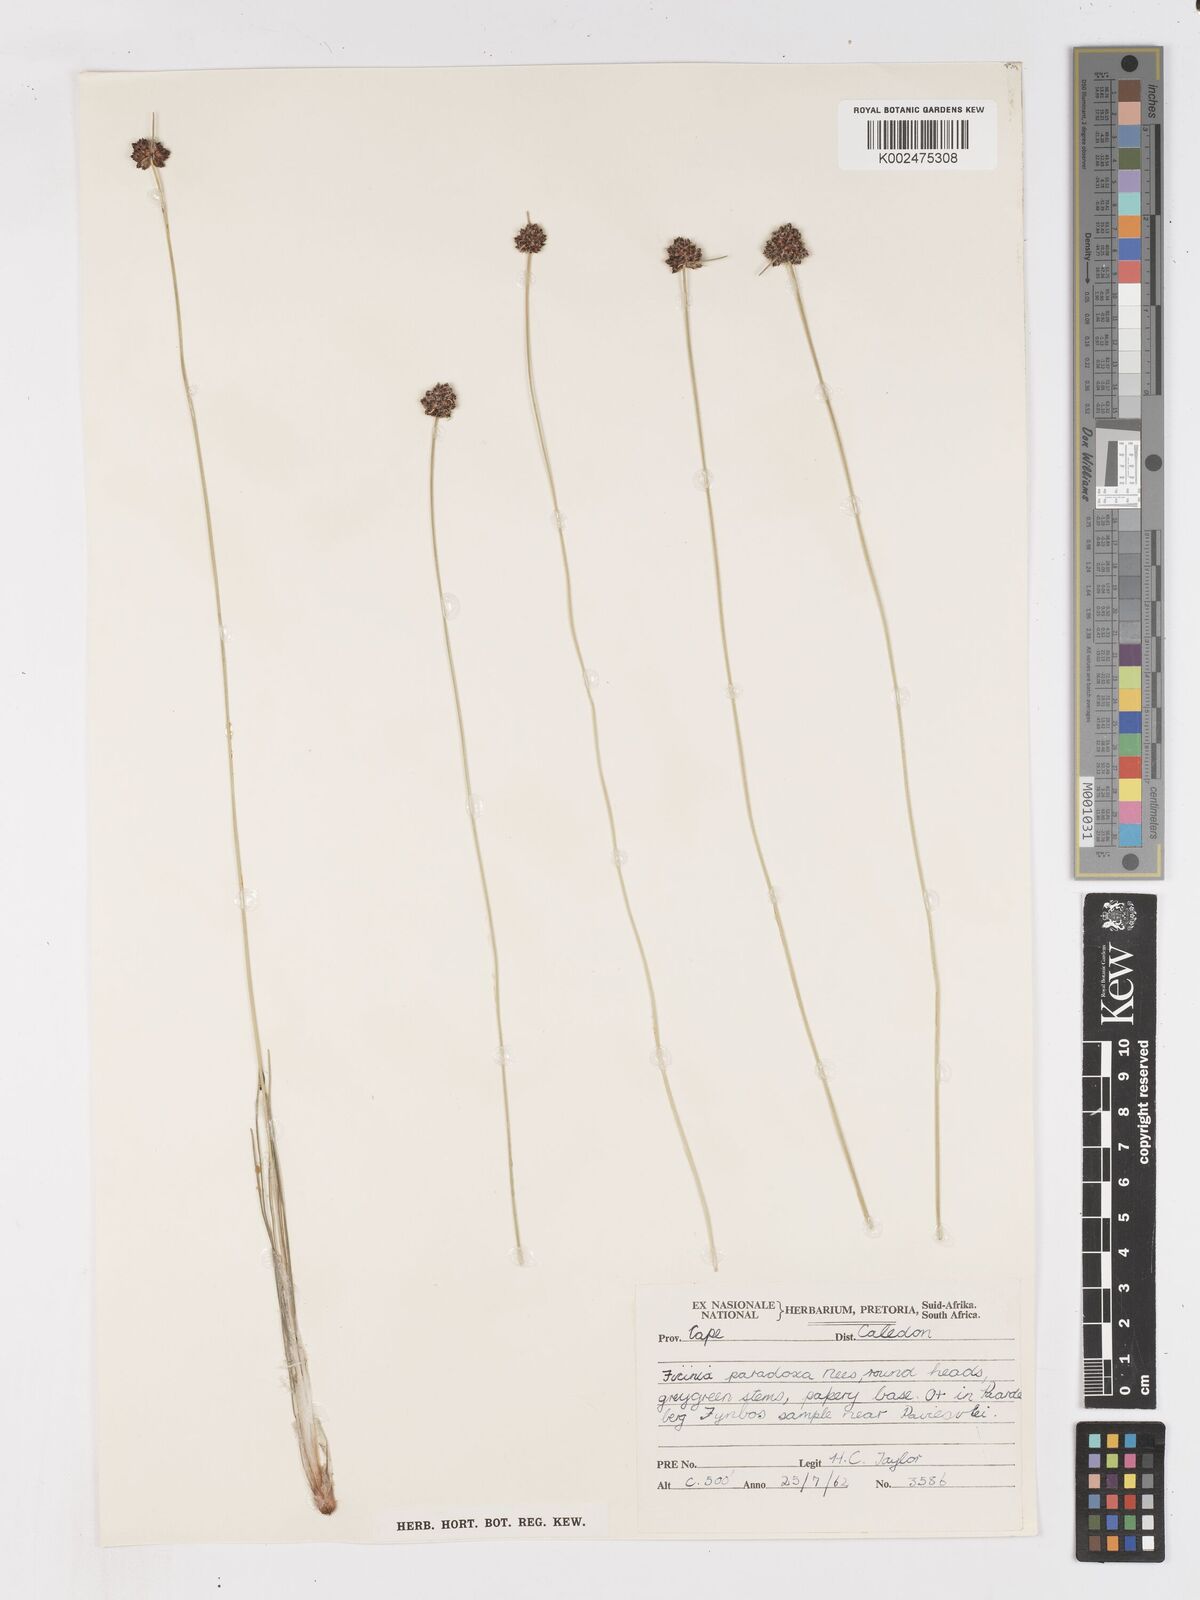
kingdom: Plantae
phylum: Tracheophyta
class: Liliopsida
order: Poales
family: Cyperaceae
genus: Ficinia
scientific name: Ficinia paradoxa
